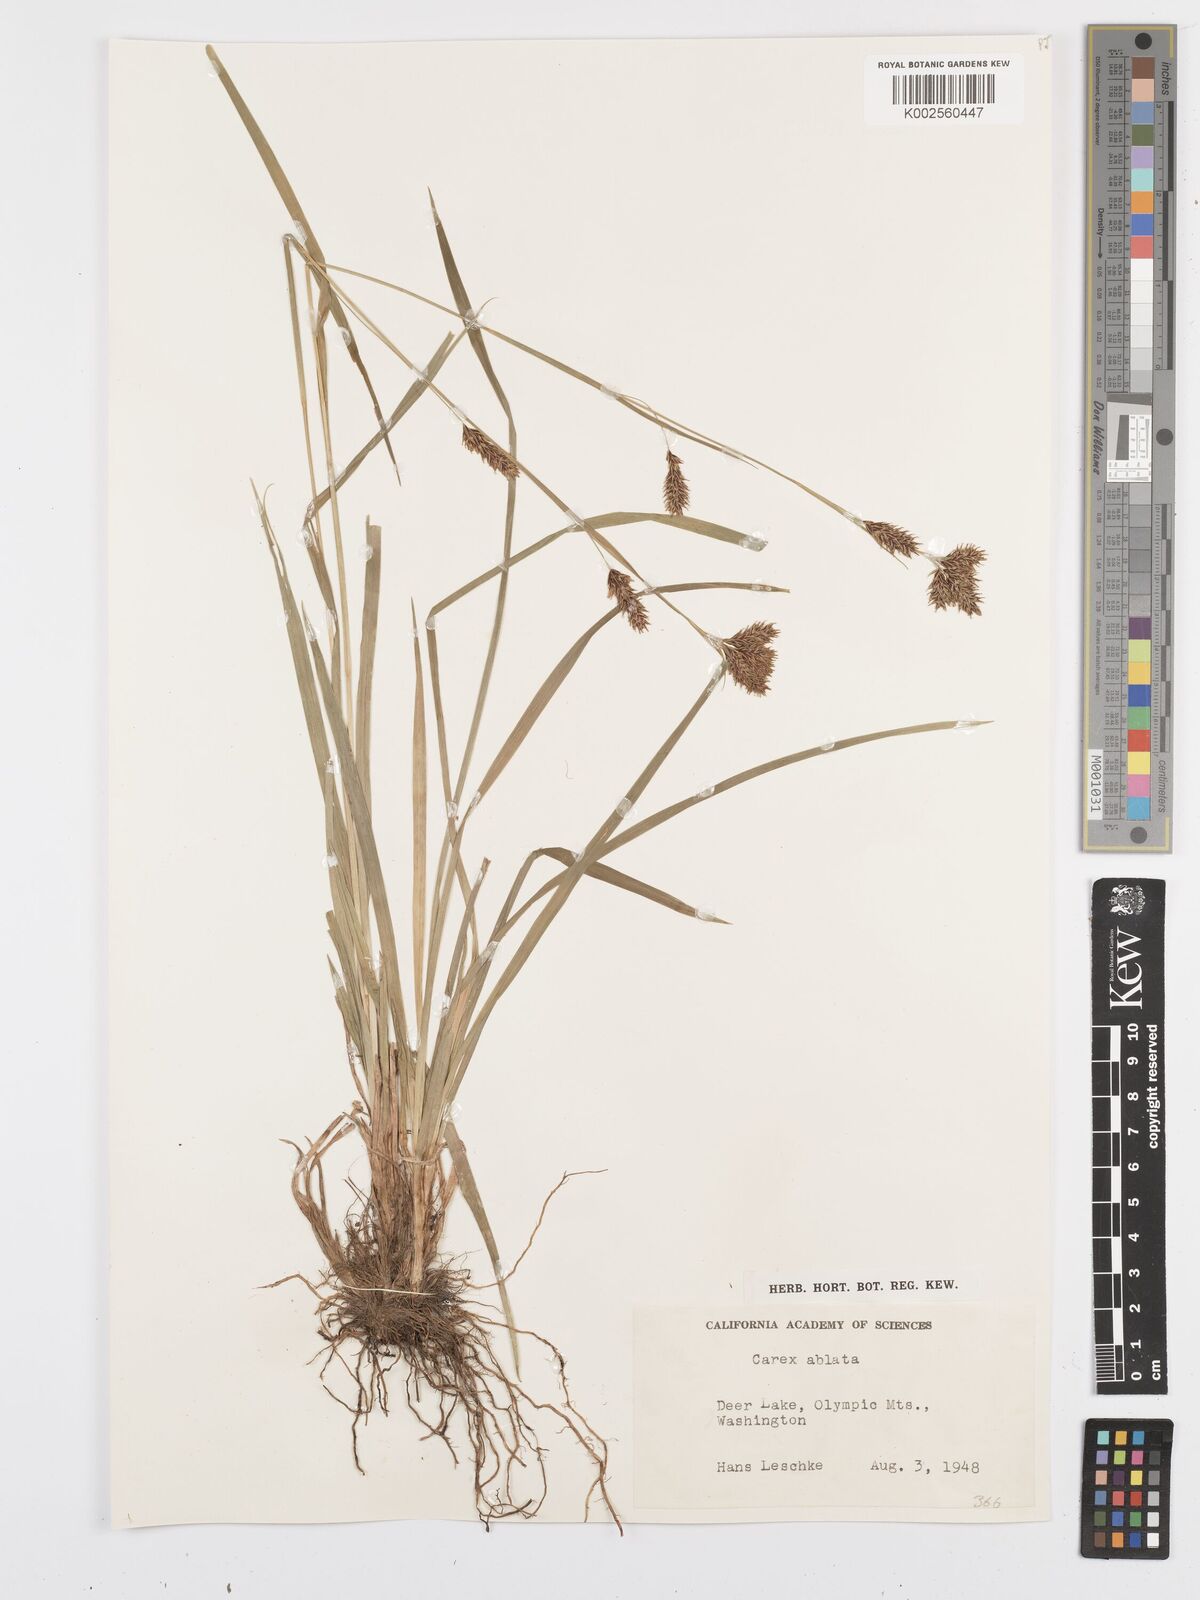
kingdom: Plantae
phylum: Tracheophyta
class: Liliopsida
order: Poales
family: Cyperaceae
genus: Carex
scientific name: Carex luzulina
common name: Spring sedge
